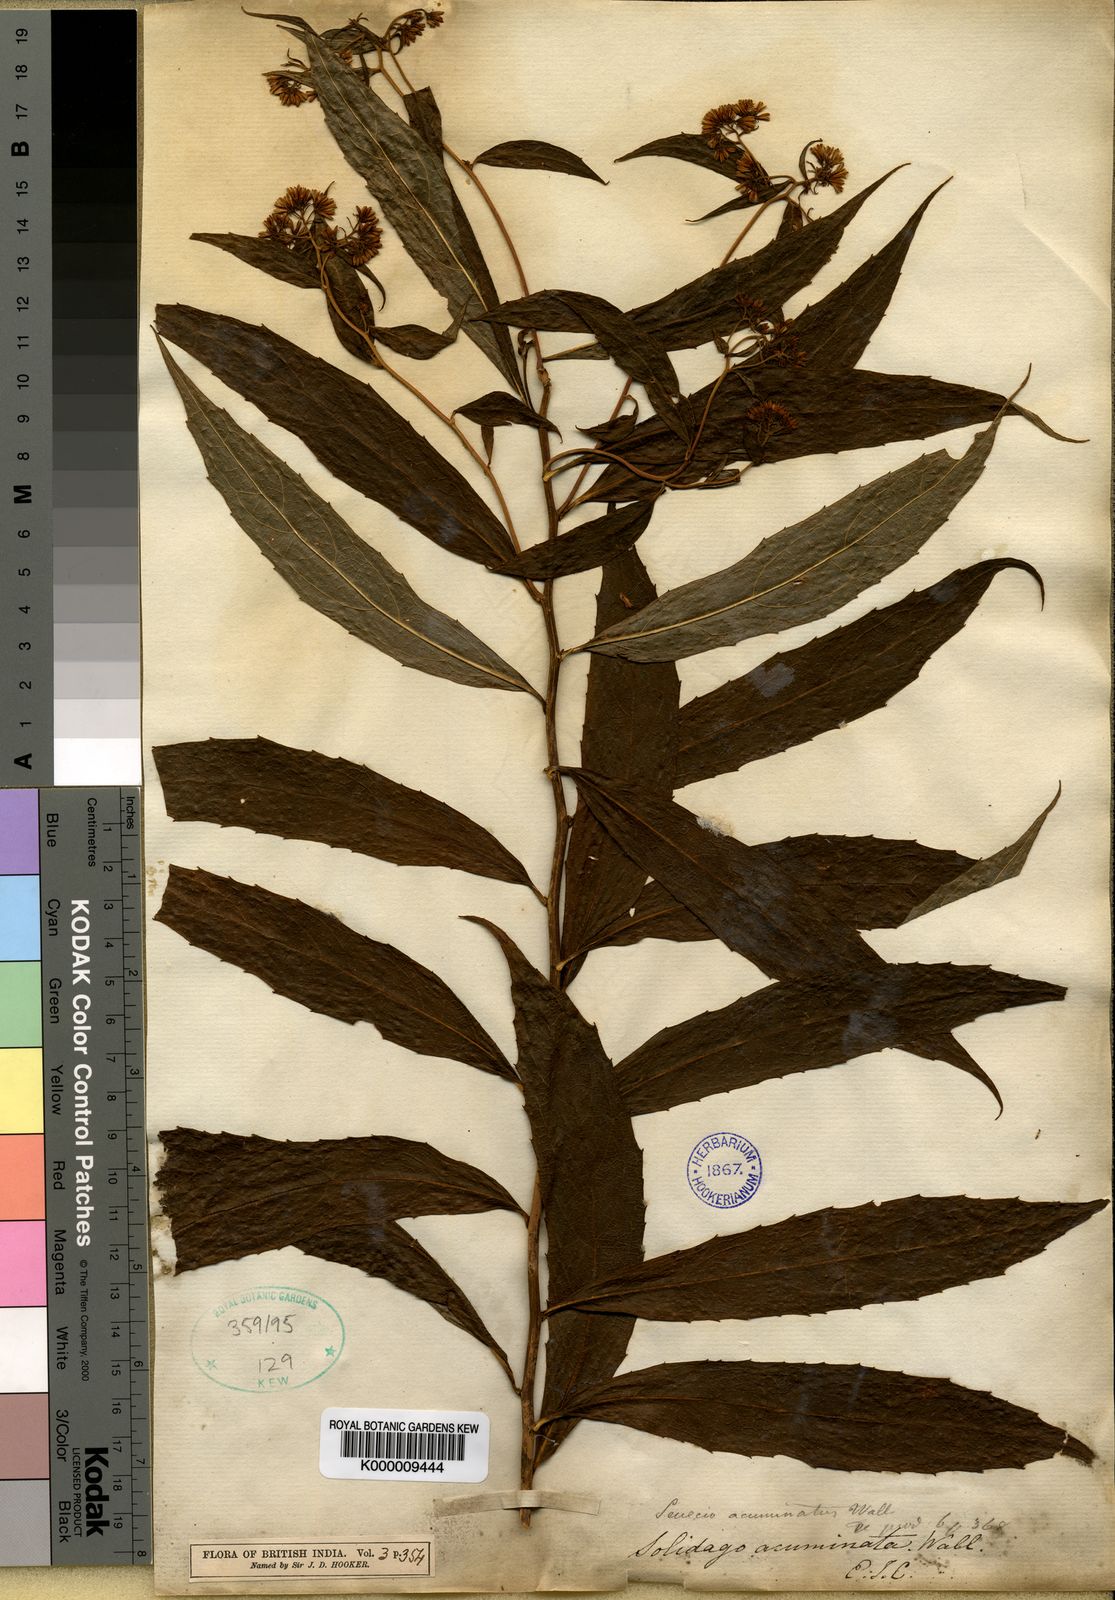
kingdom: Plantae
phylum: Tracheophyta
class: Magnoliopsida
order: Asterales
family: Asteraceae
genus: Synotis
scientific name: Synotis acuminata
